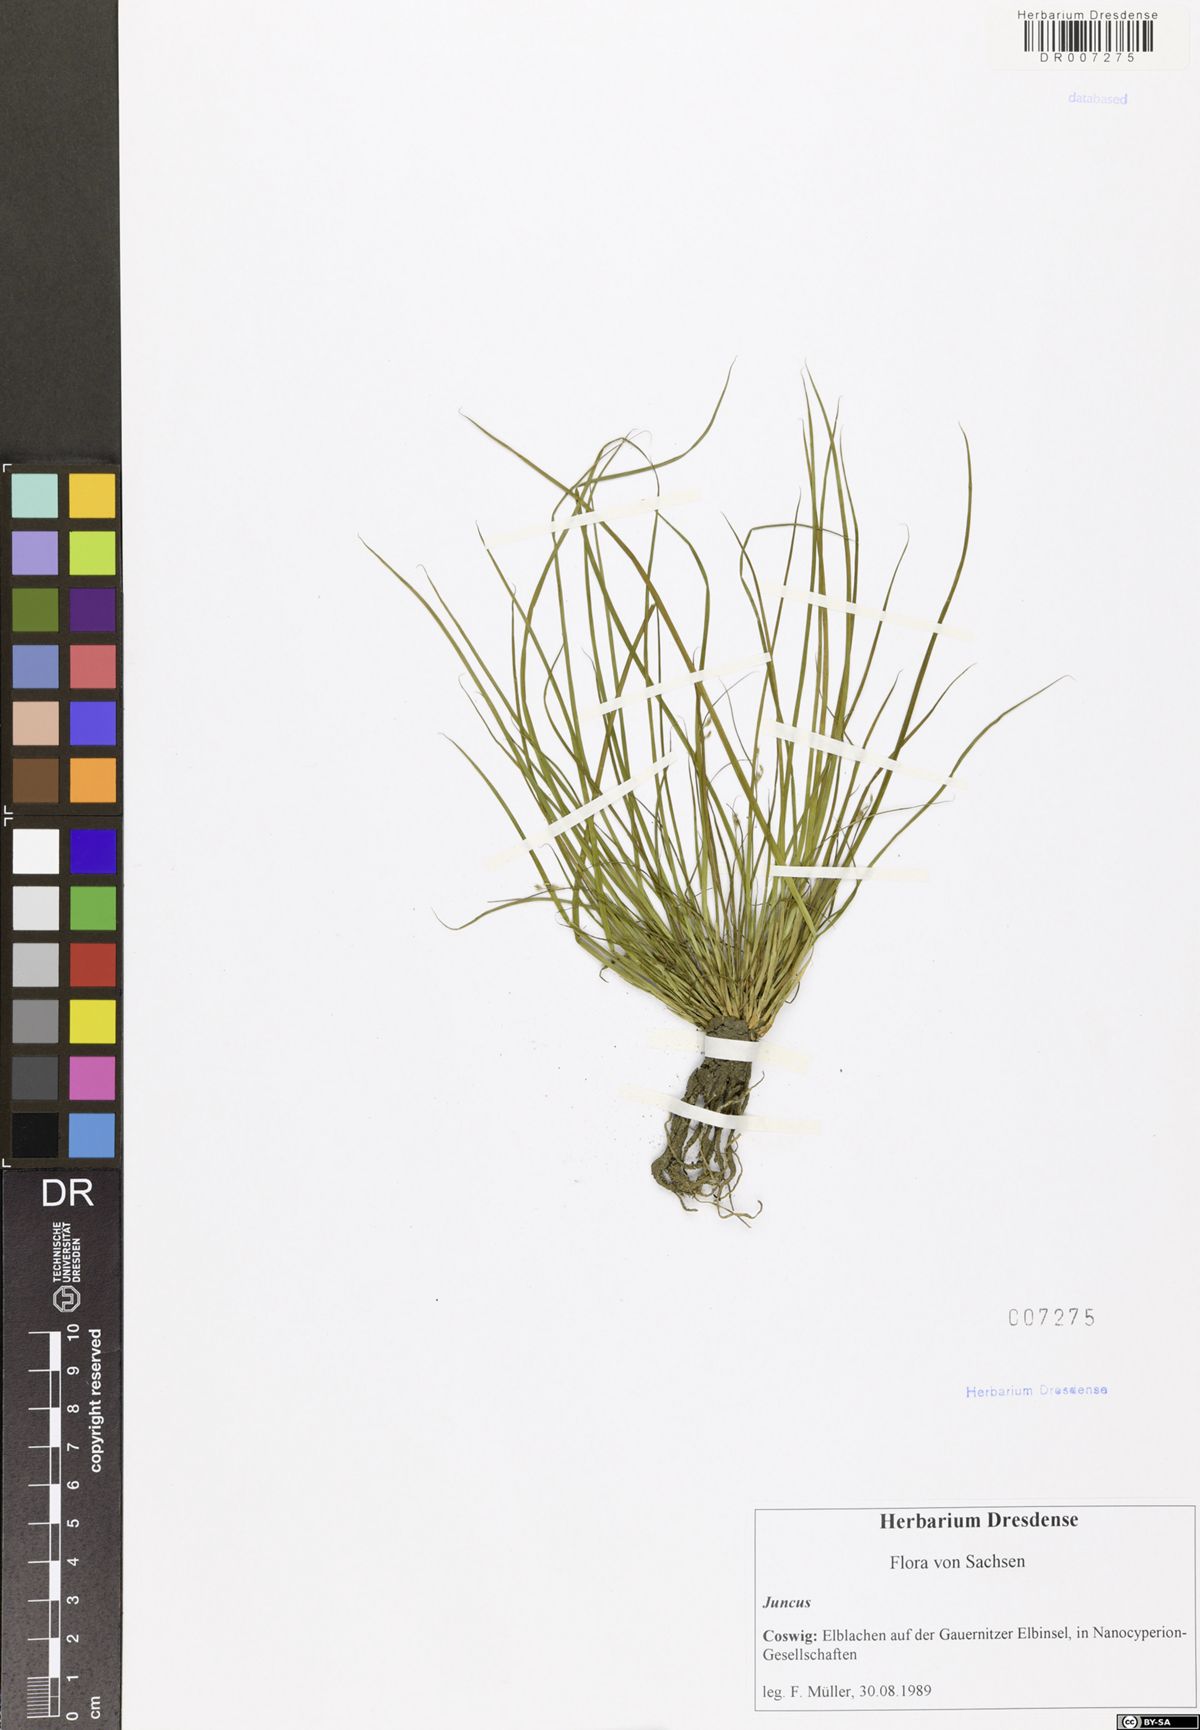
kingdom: Plantae
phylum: Tracheophyta
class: Liliopsida
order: Poales
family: Juncaceae
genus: Juncus
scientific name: Juncus
